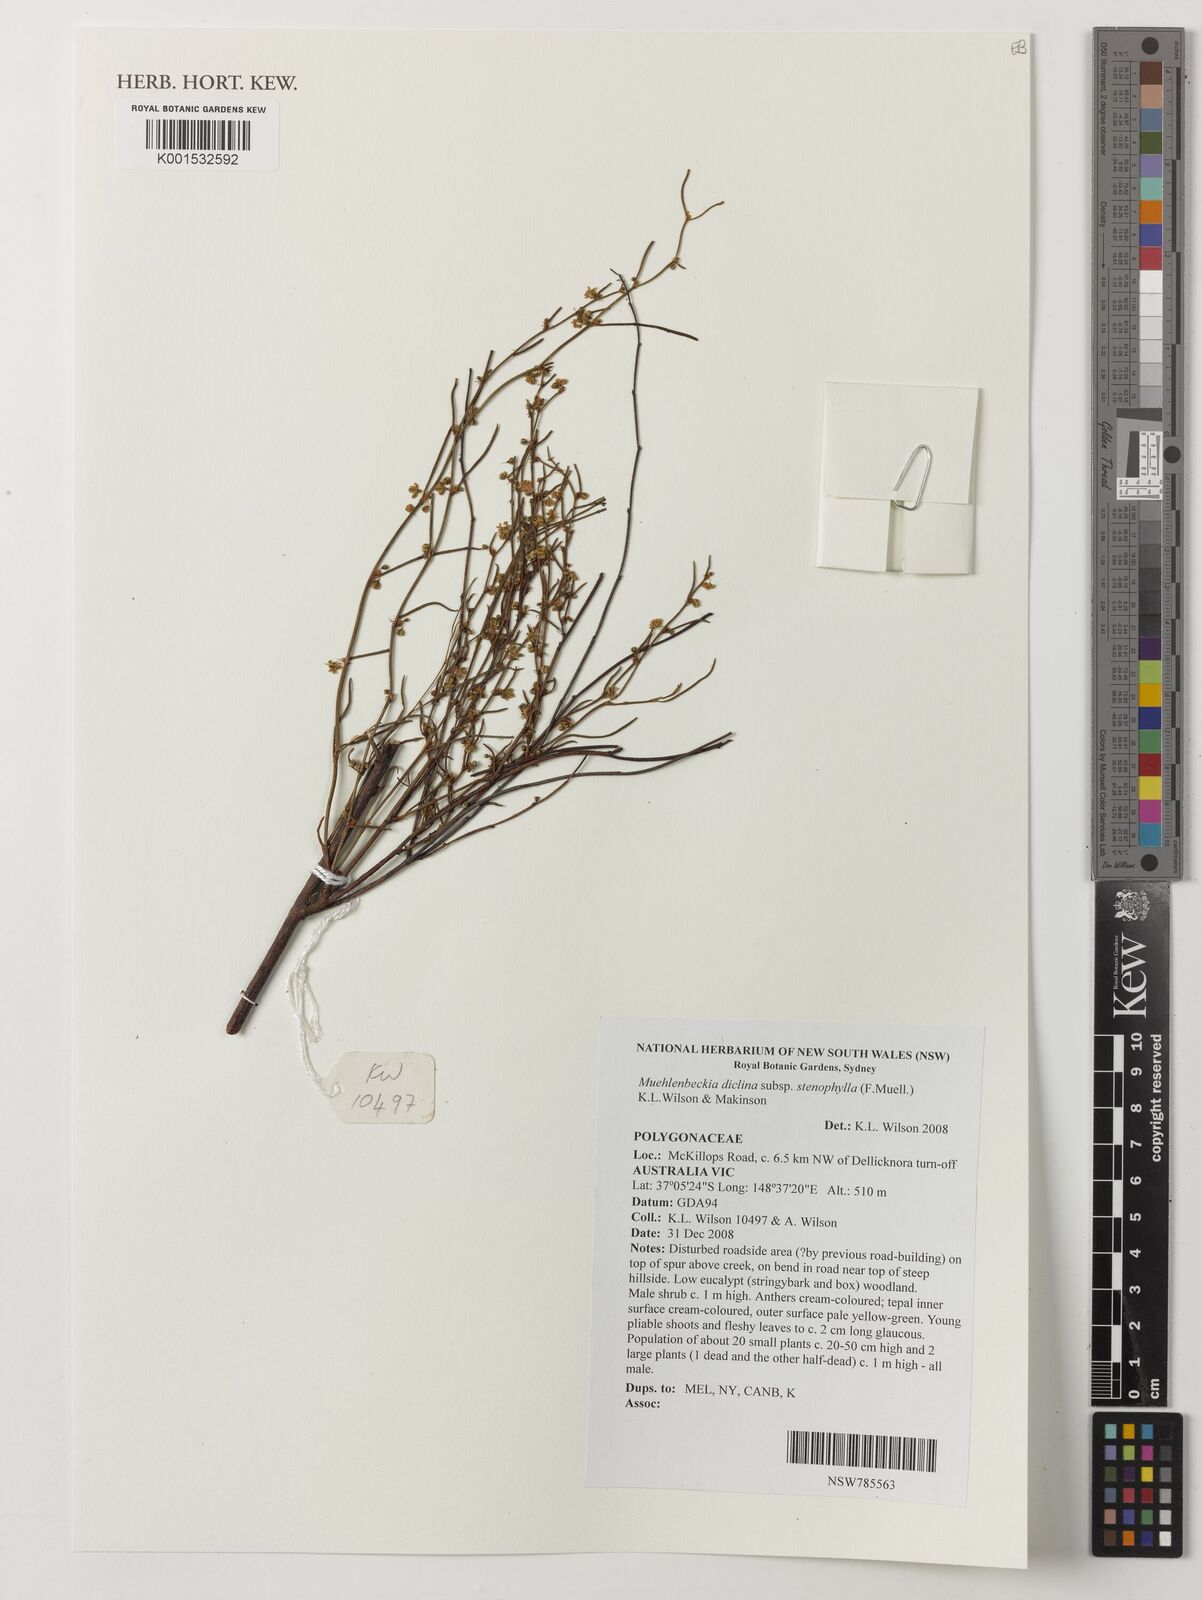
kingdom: Plantae
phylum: Tracheophyta
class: Magnoliopsida
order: Caryophyllales
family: Polygonaceae
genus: Muehlenbeckia
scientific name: Muehlenbeckia diclina
